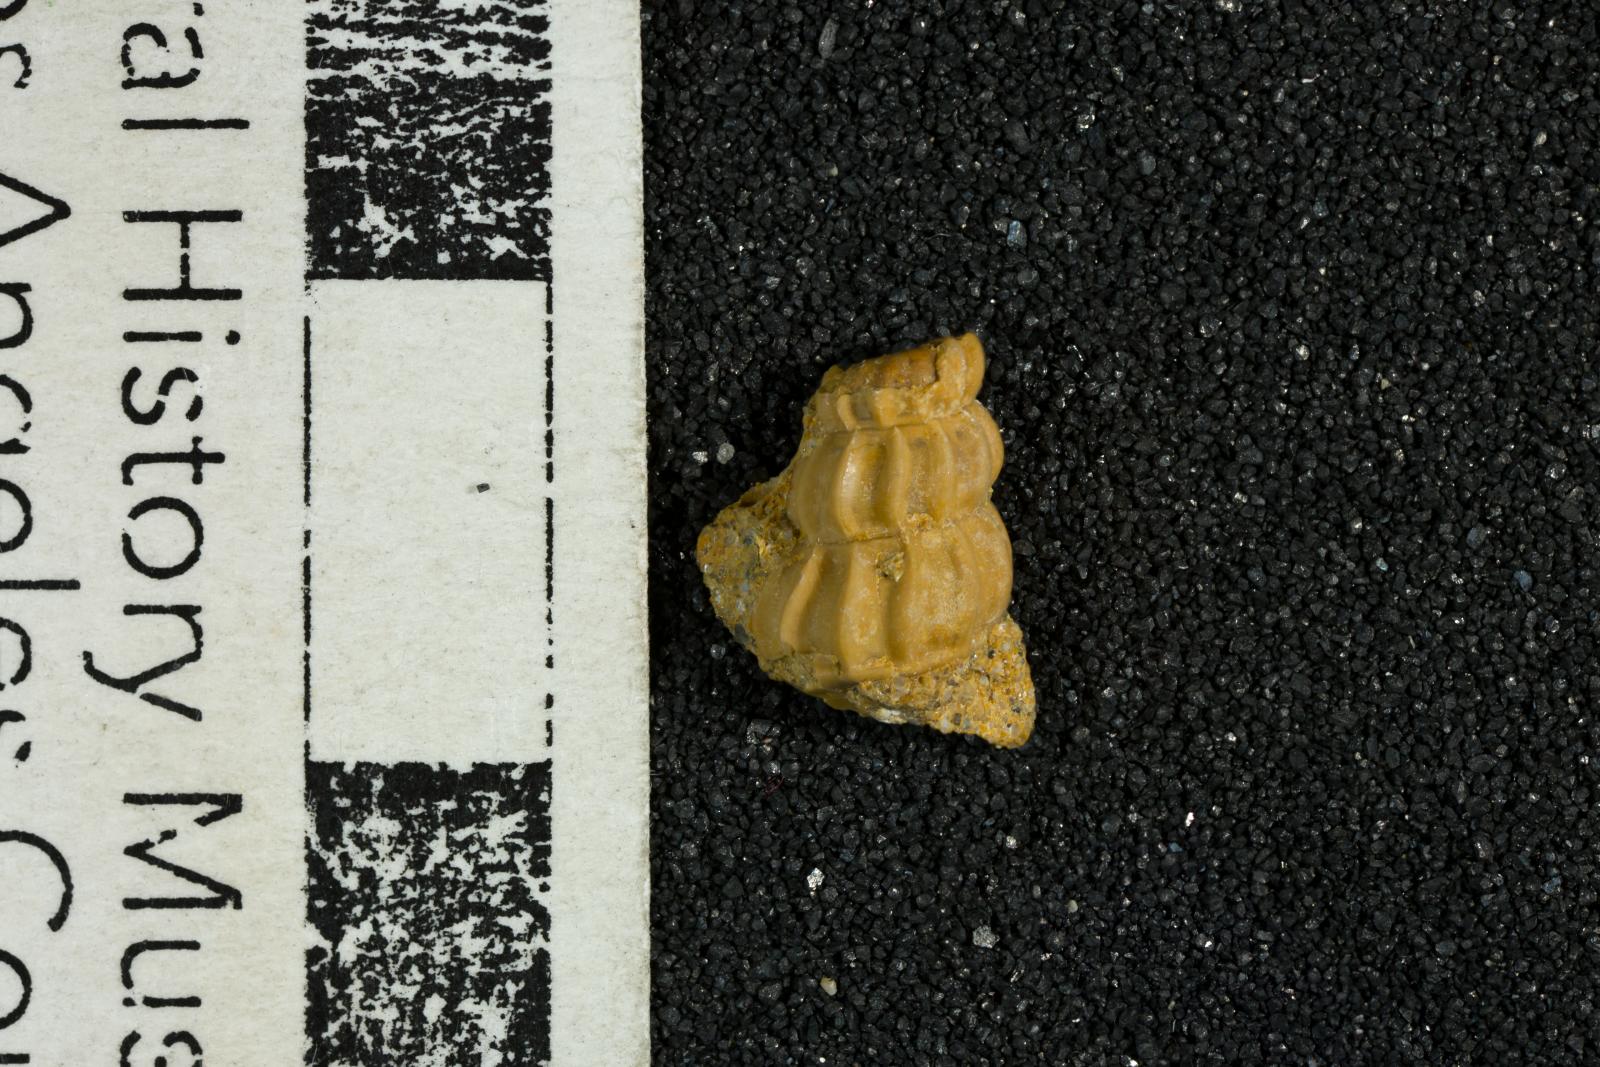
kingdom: Animalia
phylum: Mollusca
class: Gastropoda
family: Epitoniidae
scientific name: Epitoniidae
